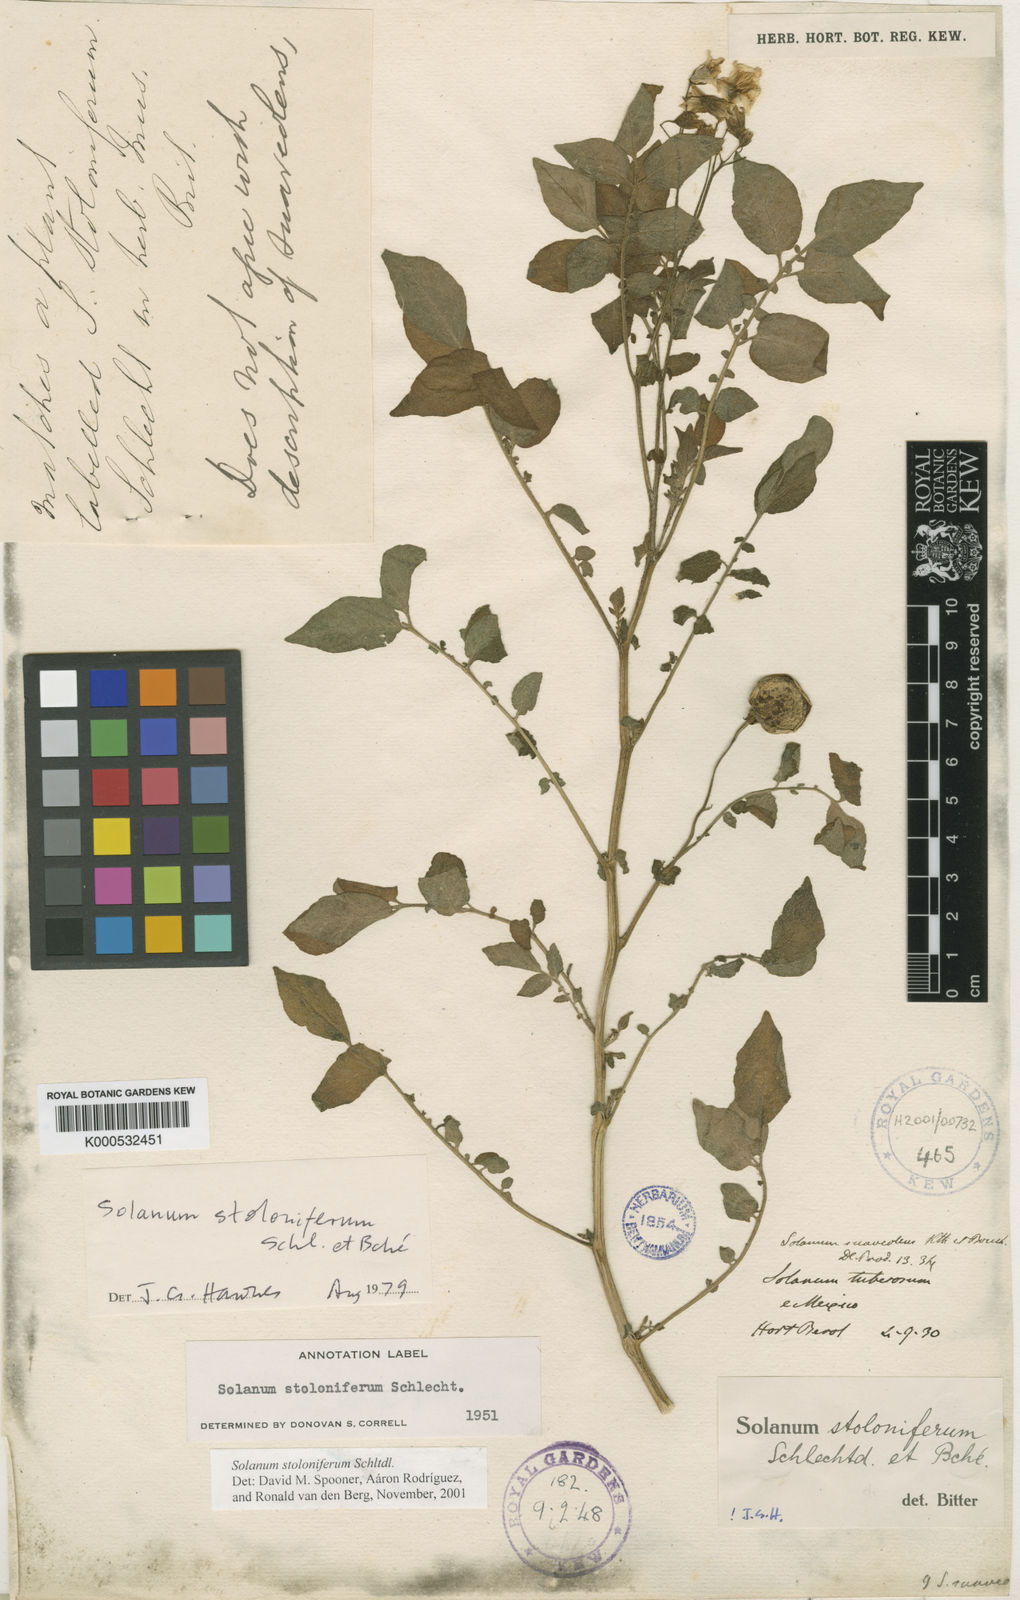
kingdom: Plantae
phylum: Tracheophyta
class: Magnoliopsida
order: Solanales
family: Solanaceae
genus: Solanum
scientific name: Solanum
